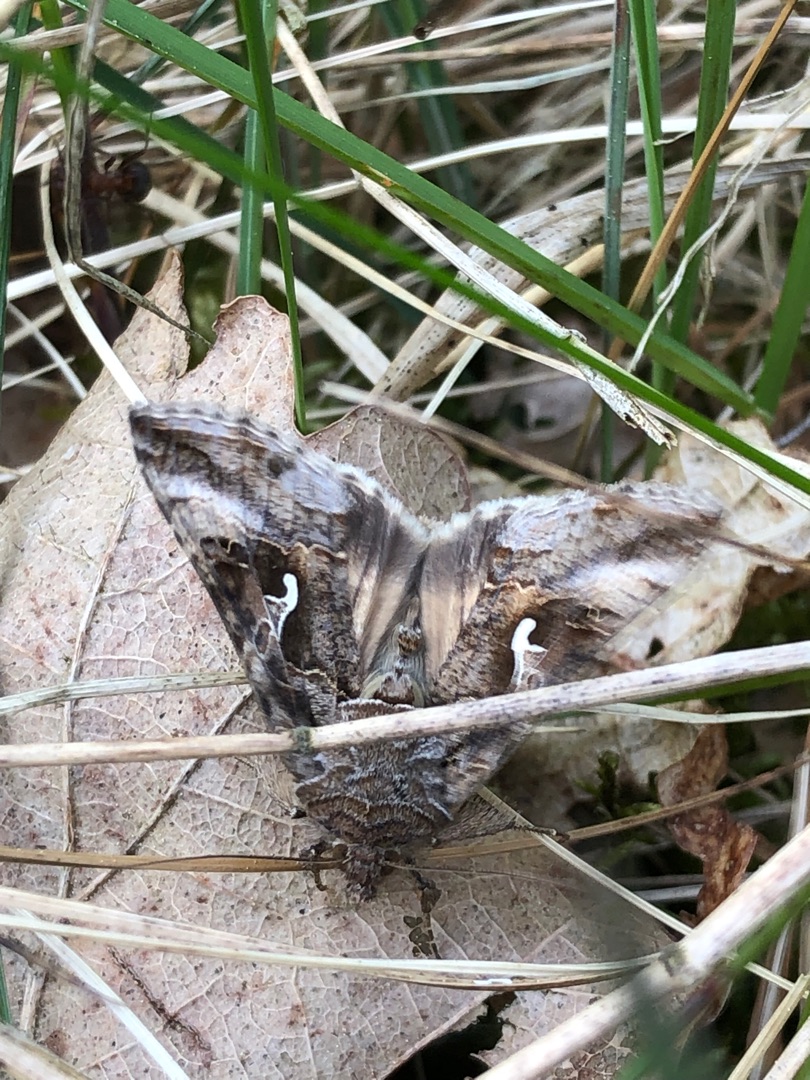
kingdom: Animalia
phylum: Arthropoda
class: Insecta
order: Lepidoptera
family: Noctuidae
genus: Autographa
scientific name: Autographa gamma
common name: Gammaugle
